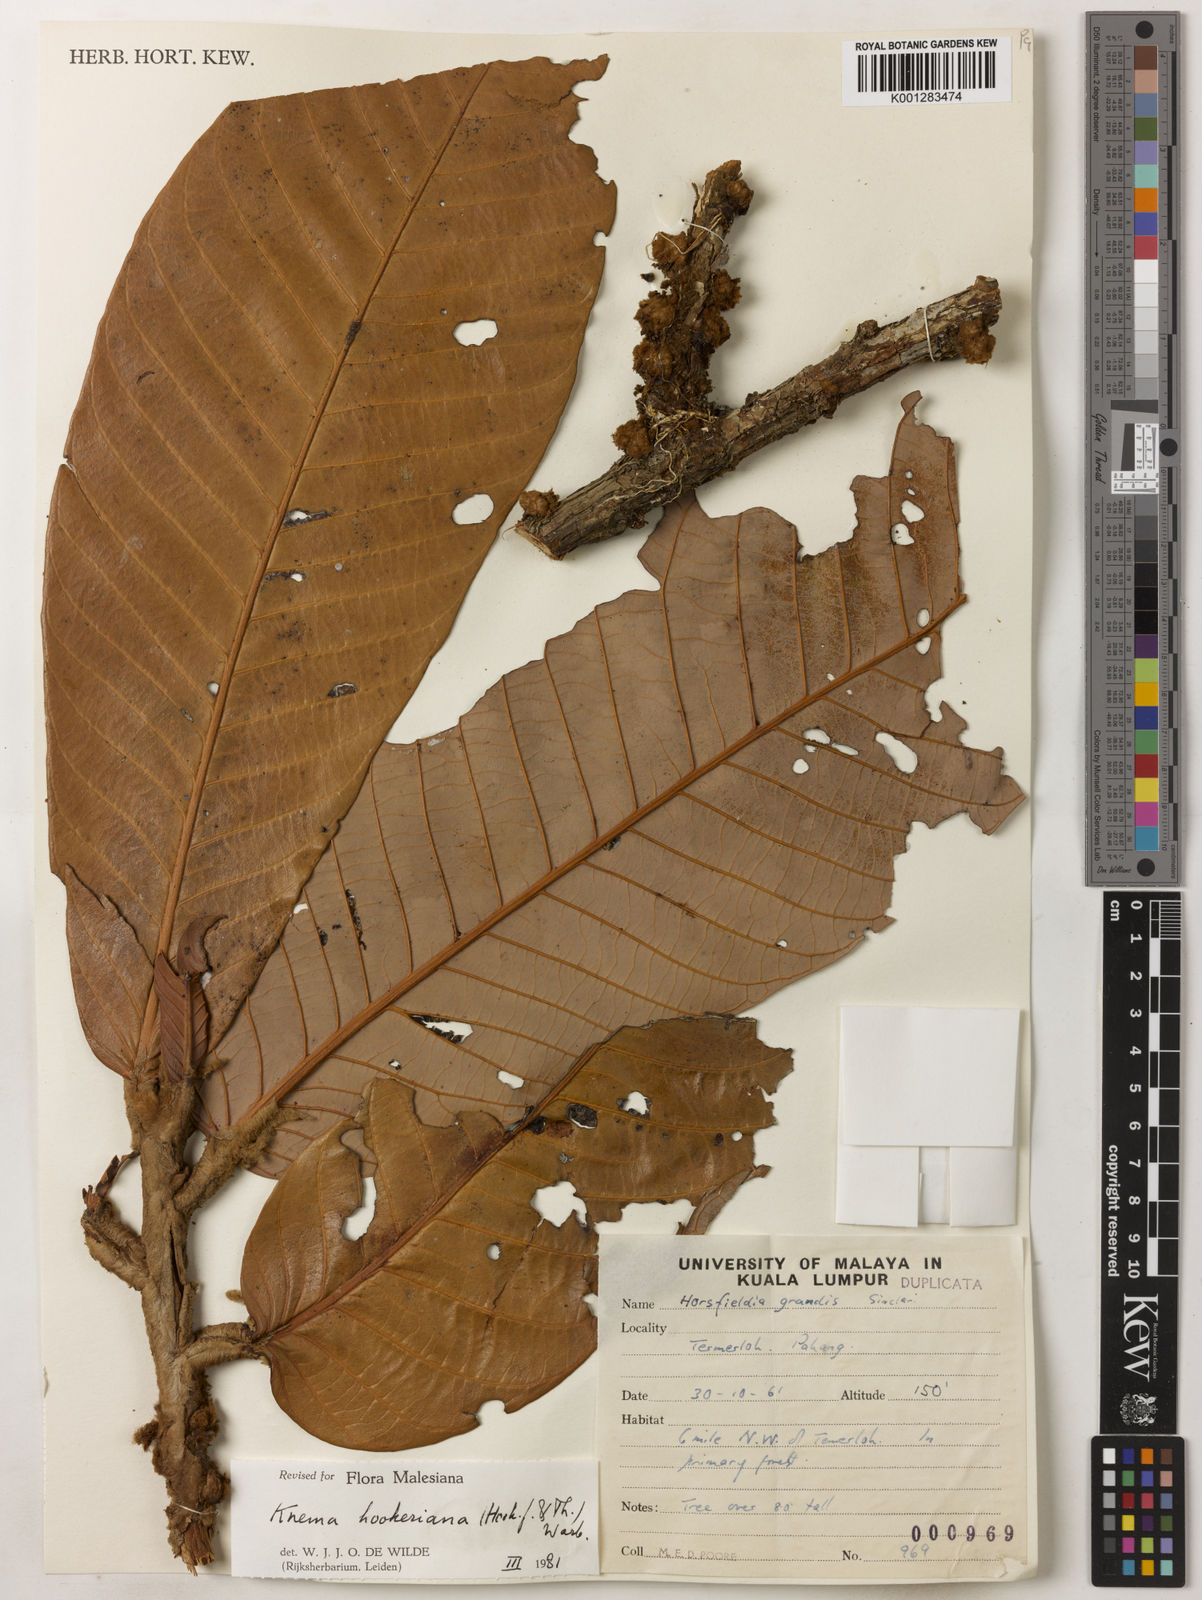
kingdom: Plantae
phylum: Tracheophyta
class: Magnoliopsida
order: Magnoliales
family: Myristicaceae
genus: Knema
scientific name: Knema hookeriana
